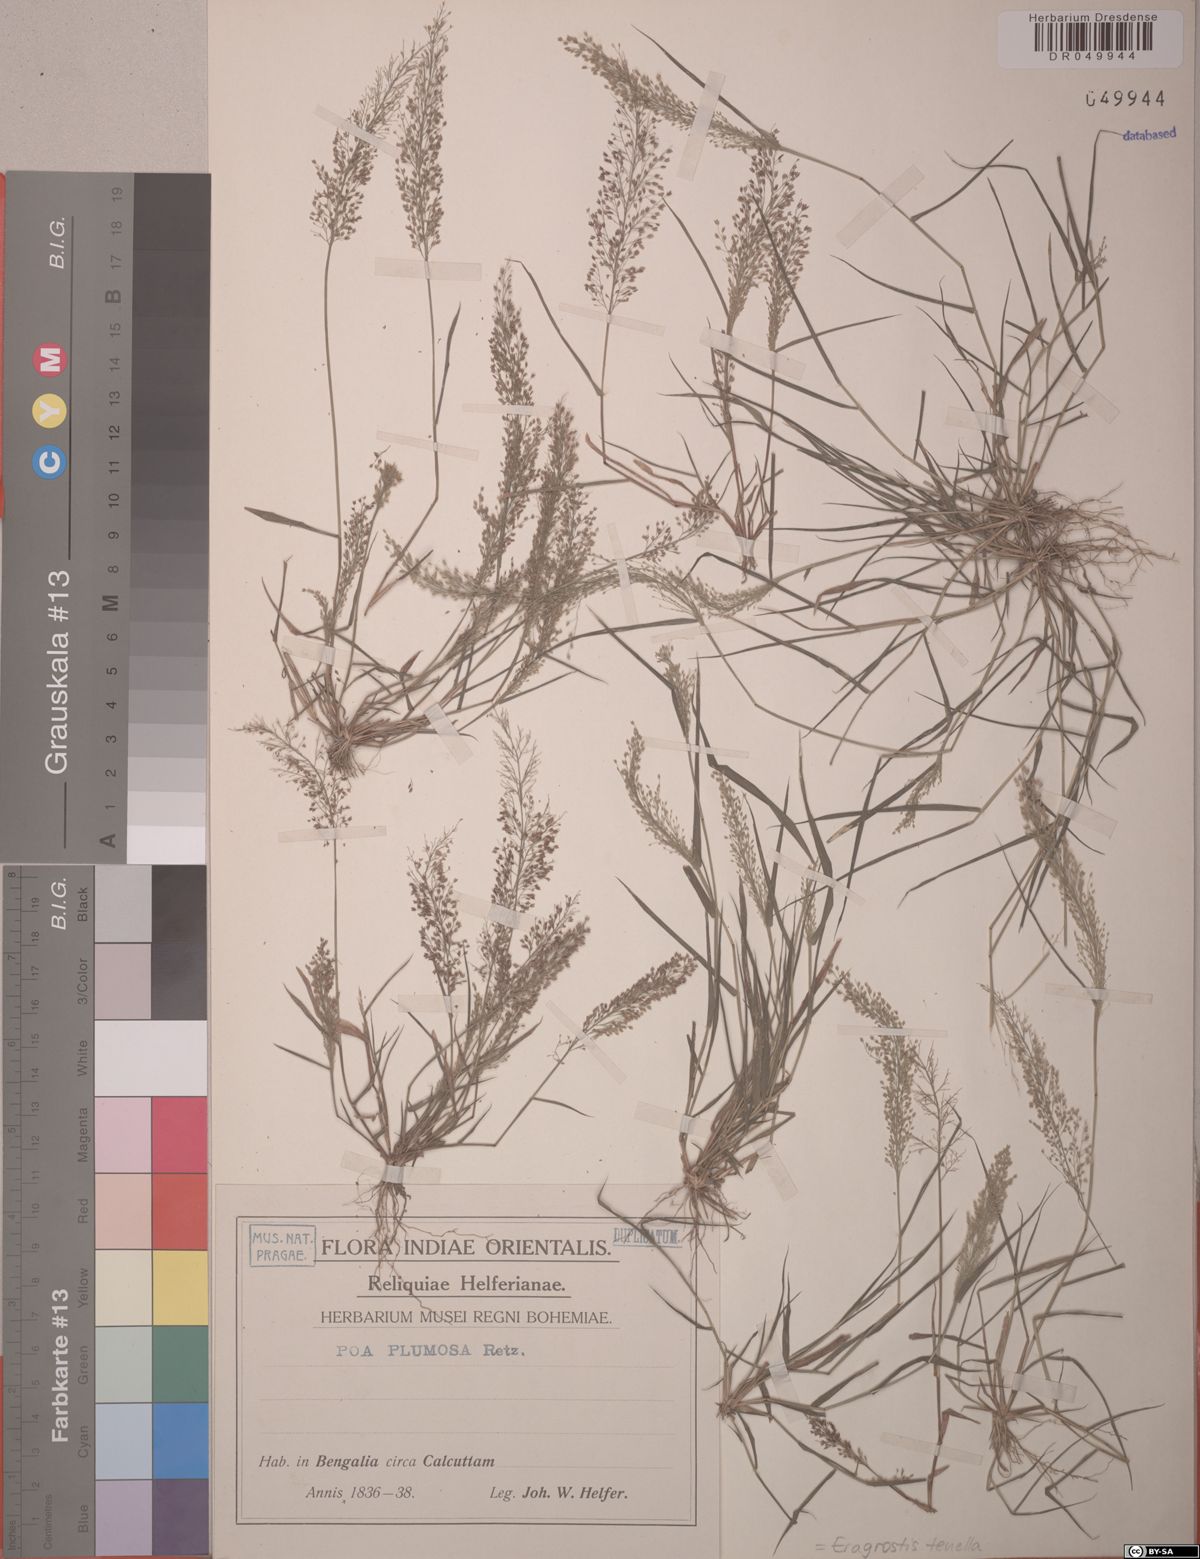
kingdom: Plantae
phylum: Tracheophyta
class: Liliopsida
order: Poales
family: Poaceae
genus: Eragrostis
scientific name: Eragrostis tenella
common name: Japanese lovegrass
